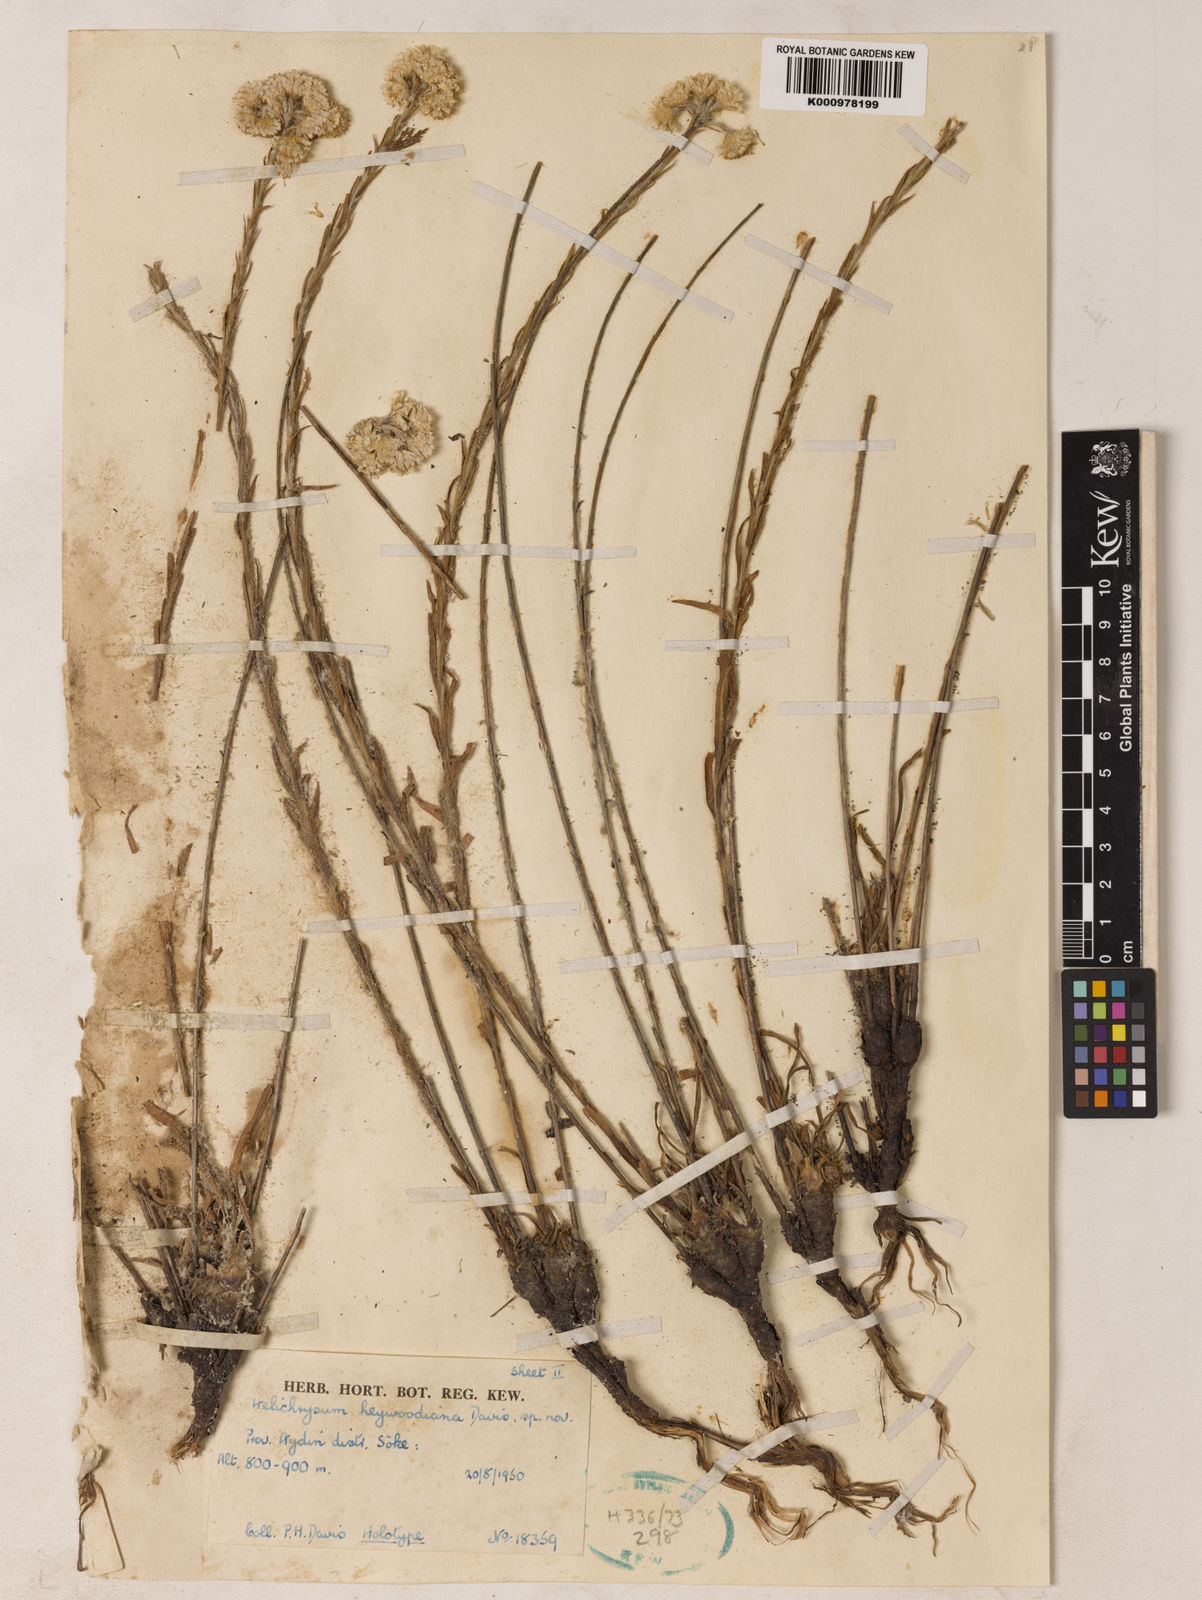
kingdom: Plantae
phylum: Tracheophyta
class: Magnoliopsida
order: Asterales
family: Asteraceae
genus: Helichrysum
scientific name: Helichrysum heywoodianum
